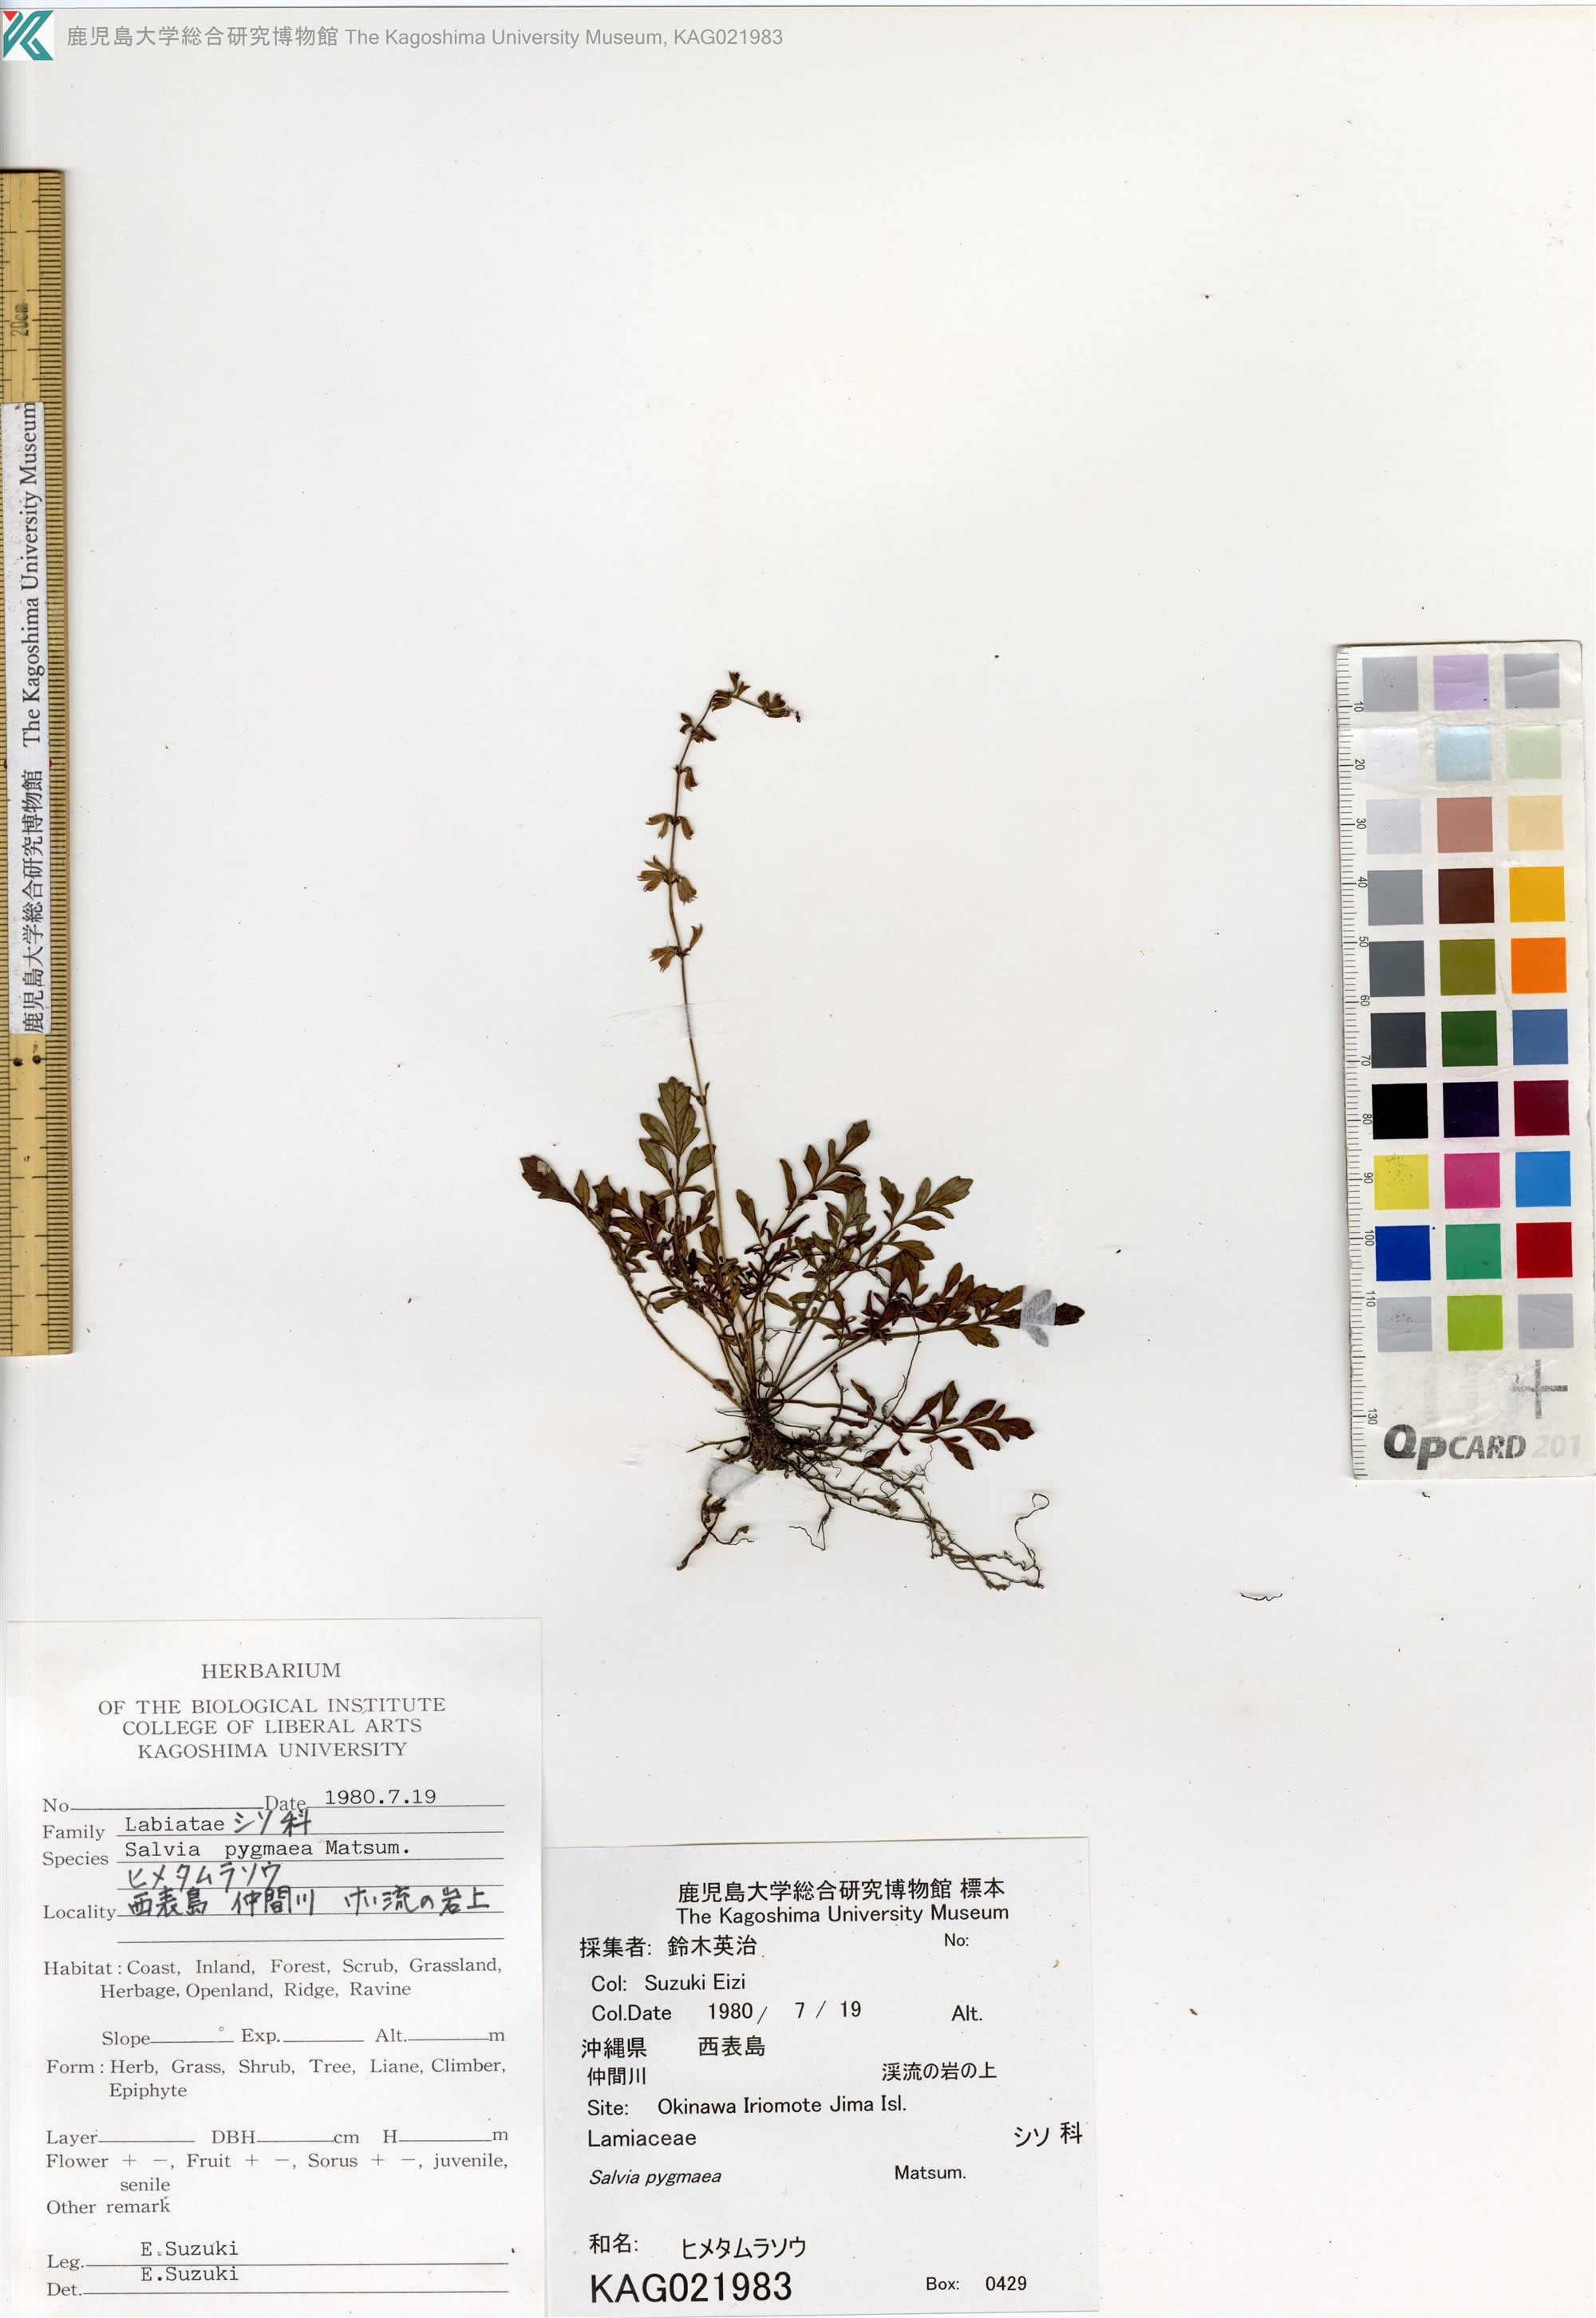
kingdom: Plantae
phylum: Tracheophyta
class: Magnoliopsida
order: Lamiales
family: Lamiaceae
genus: Salvia
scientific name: Salvia pygmaea
